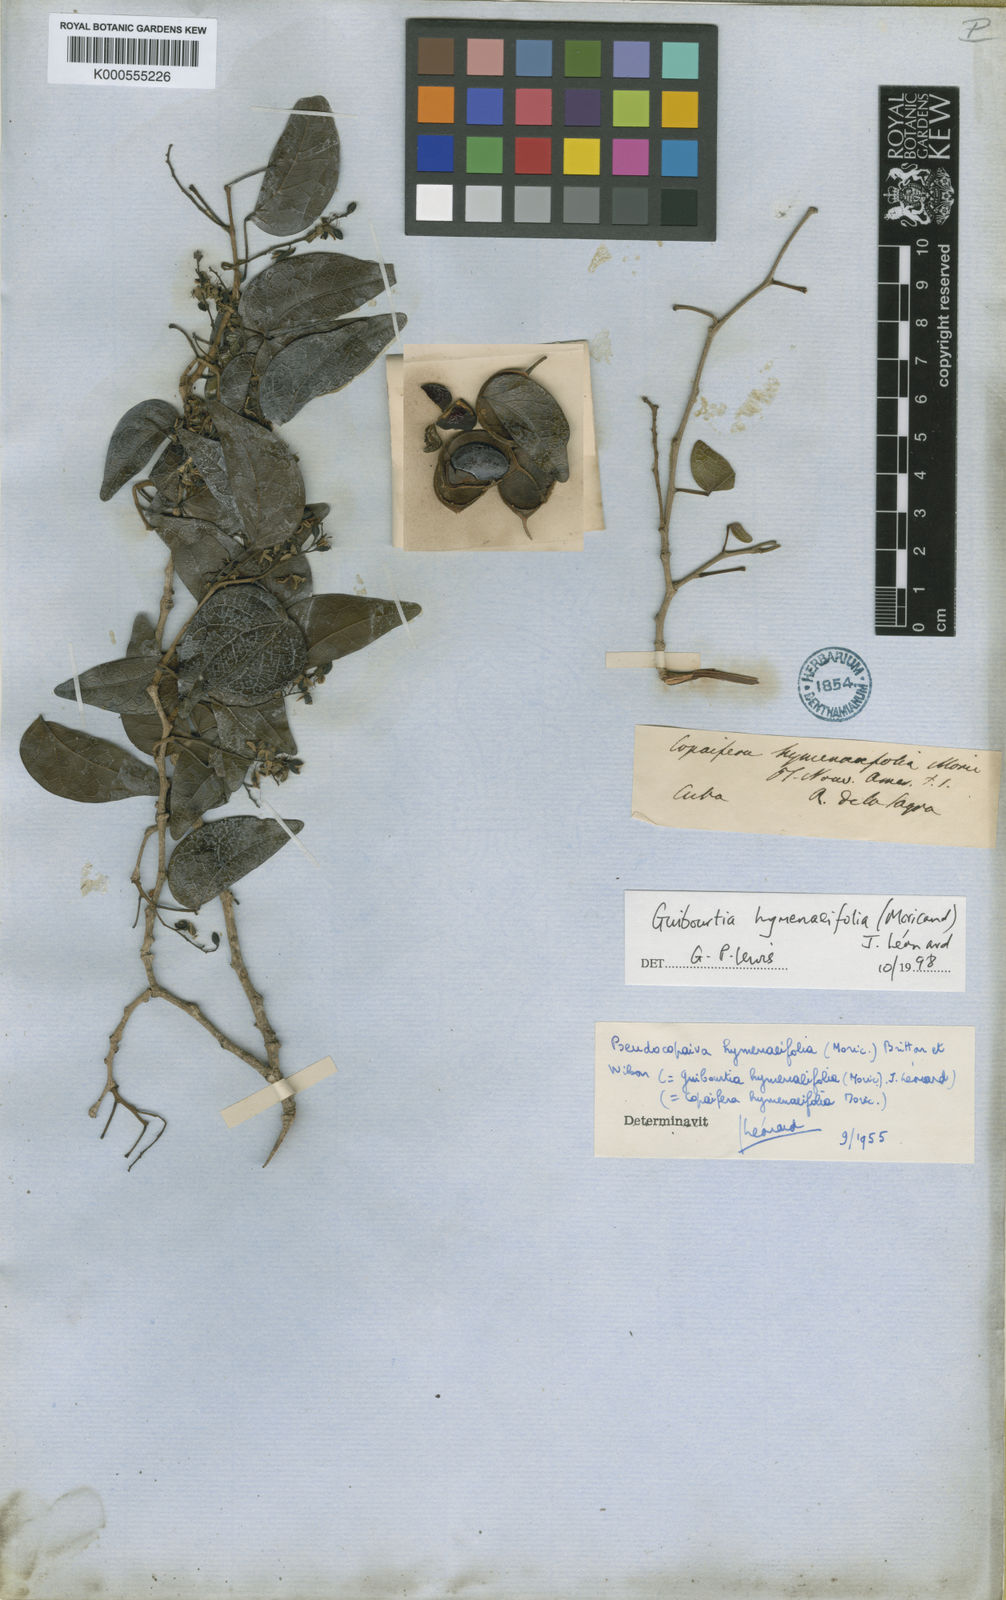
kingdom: Plantae
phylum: Tracheophyta
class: Magnoliopsida
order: Fabales
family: Fabaceae
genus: Guibourtia
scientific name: Guibourtia hymenaeifolia
